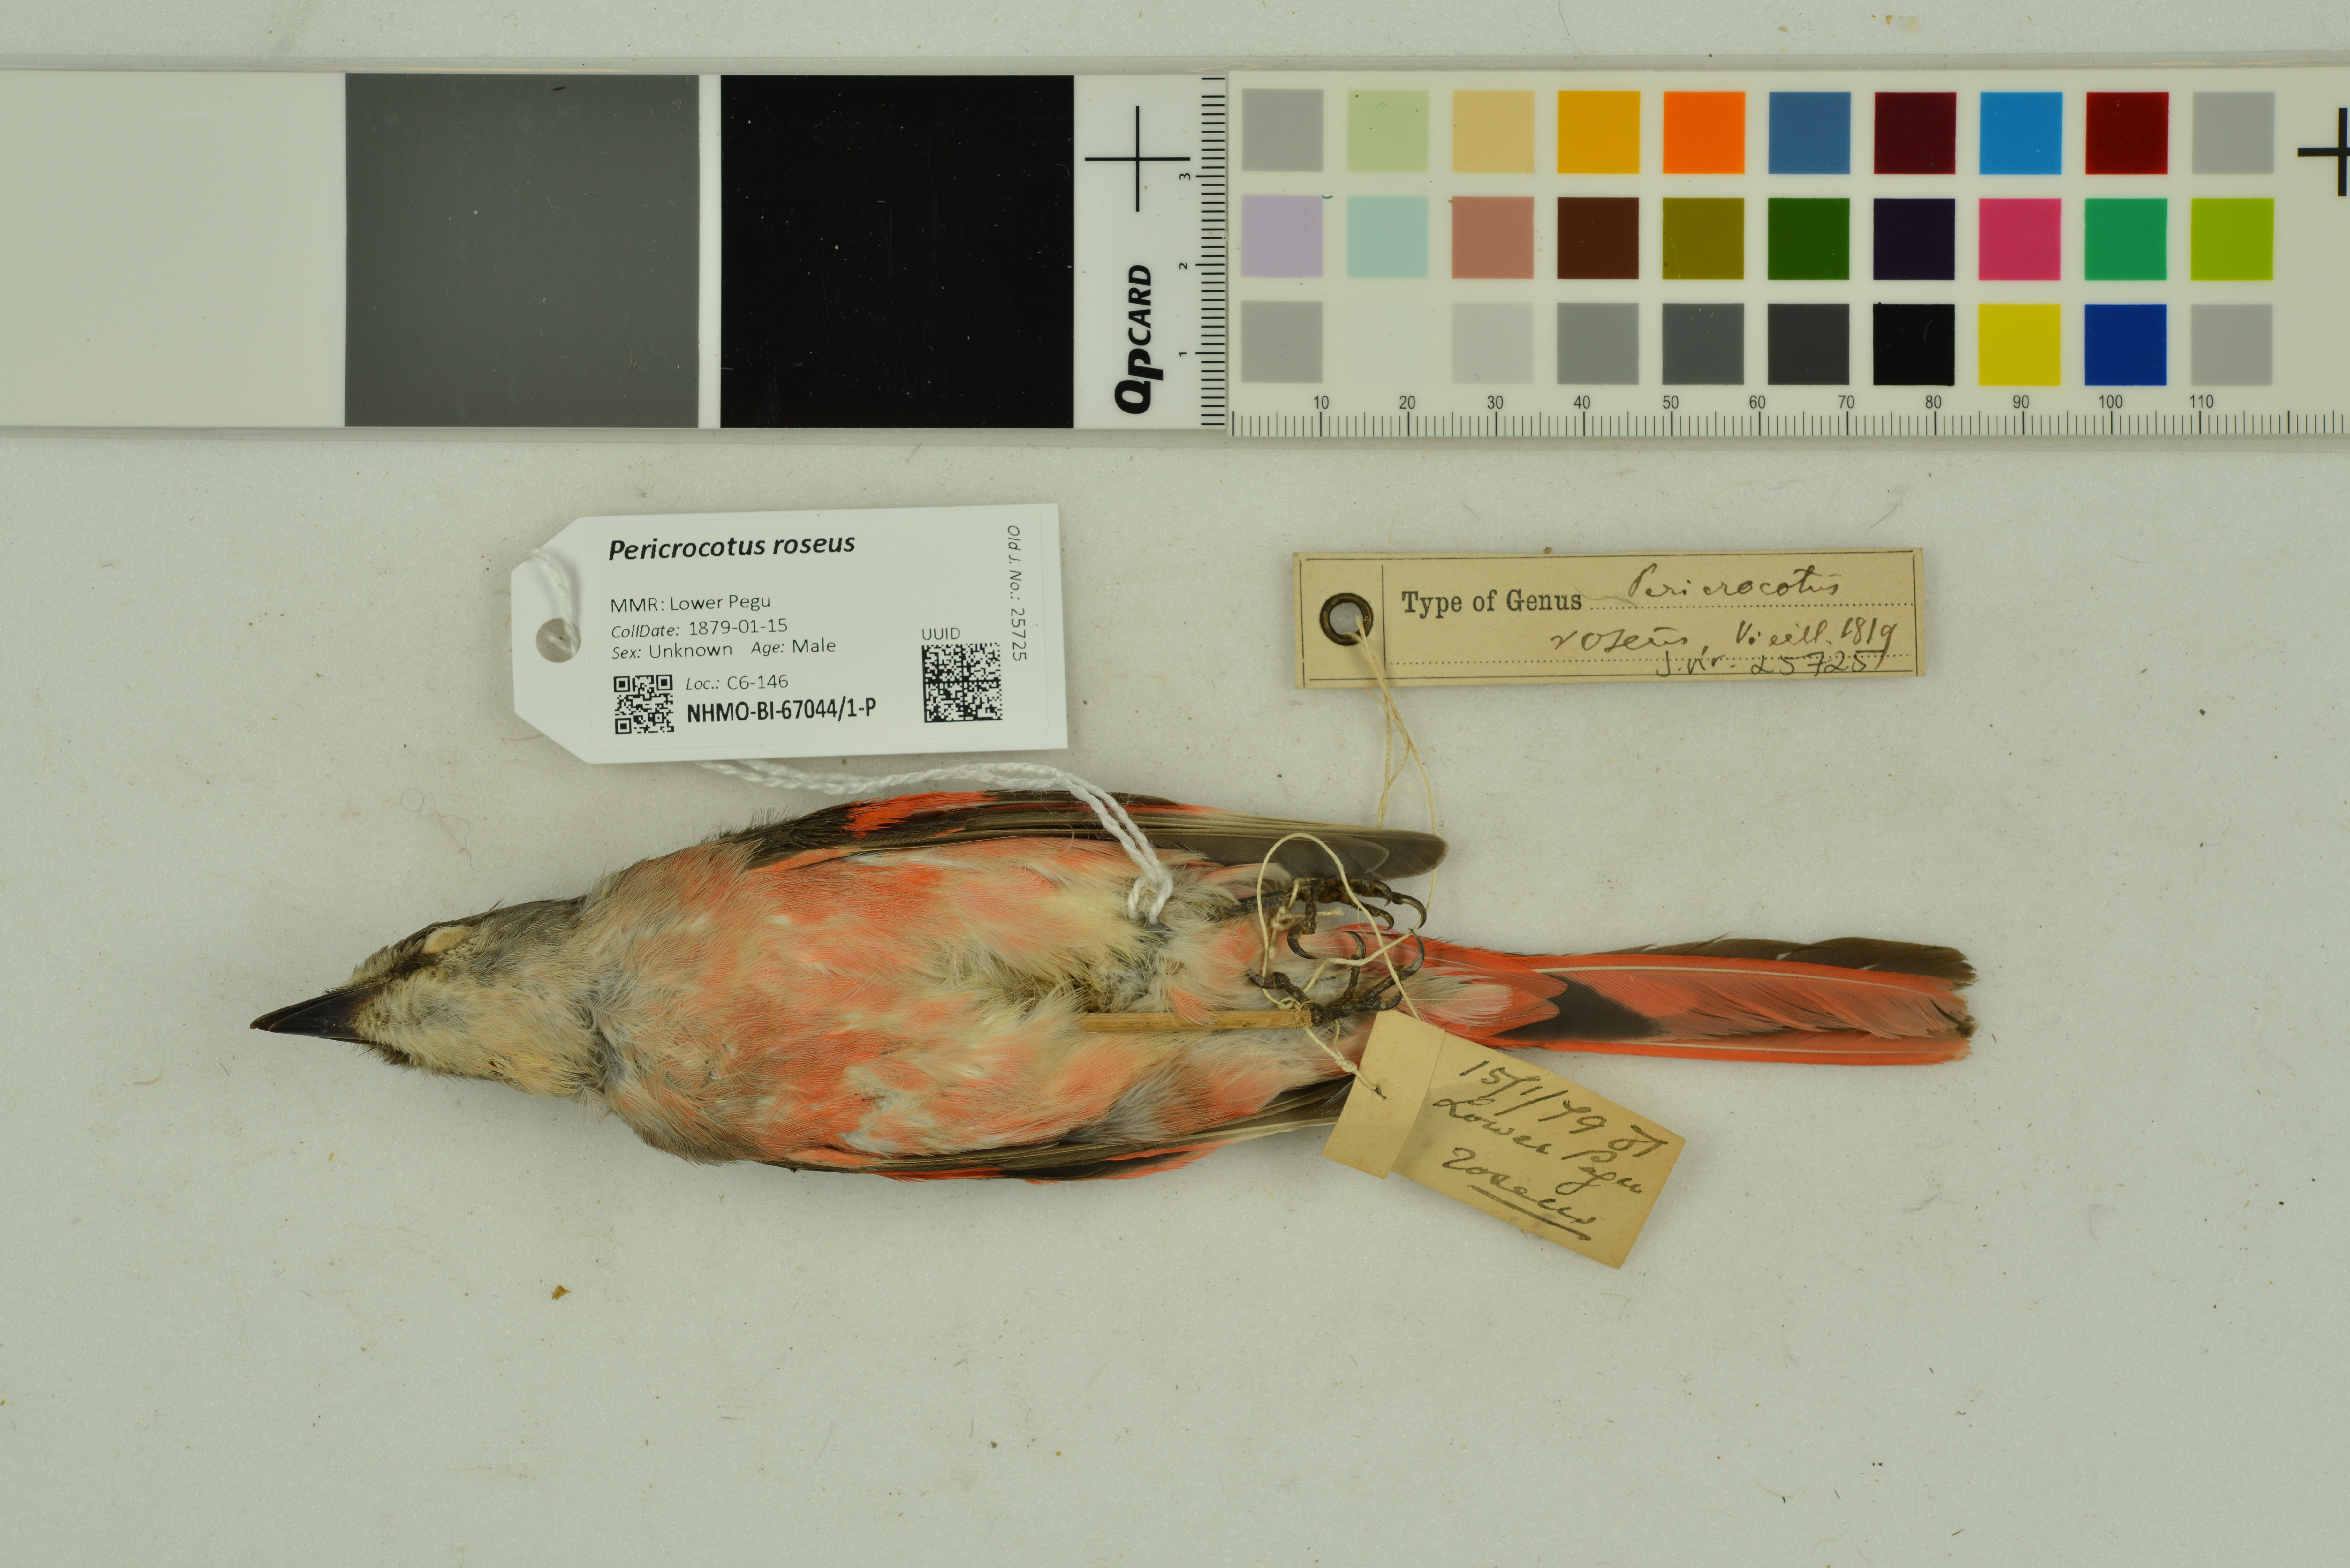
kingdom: Animalia
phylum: Chordata
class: Aves
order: Passeriformes
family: Campephagidae
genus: Pericrocotus
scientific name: Pericrocotus roseus
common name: Rosy minivet
